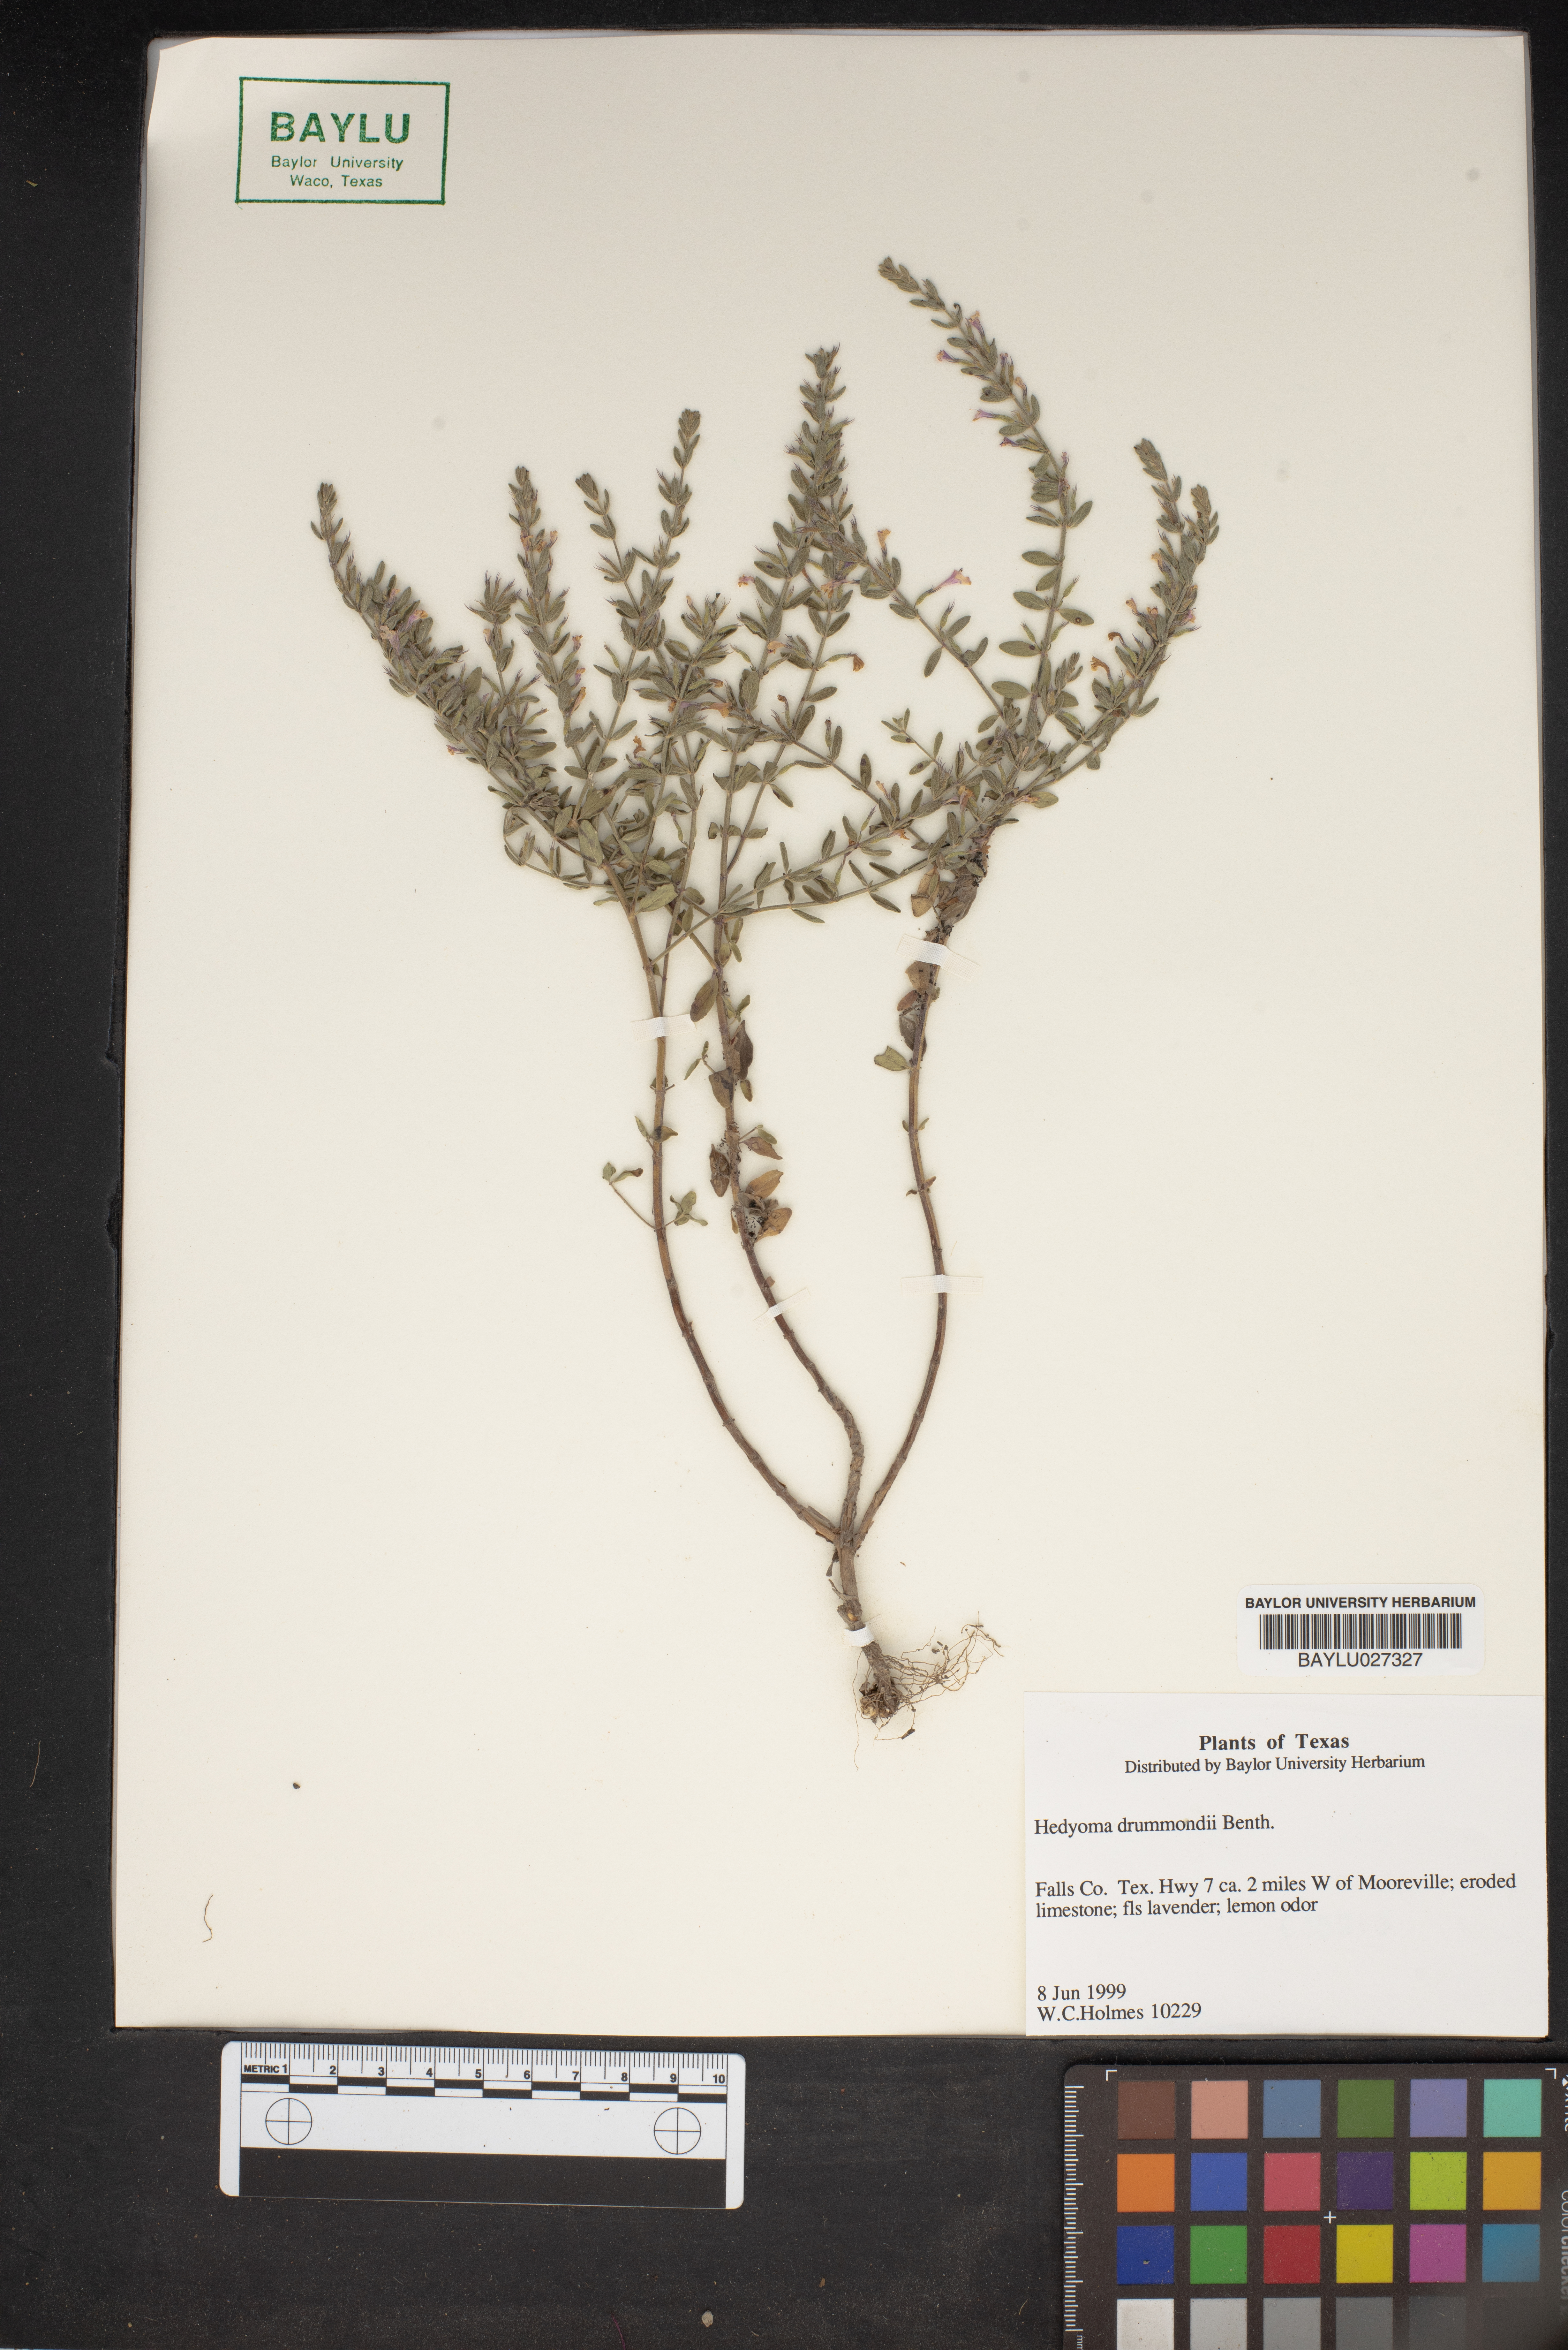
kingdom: Plantae
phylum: Tracheophyta
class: Magnoliopsida
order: Lamiales
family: Lamiaceae
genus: Hedeoma
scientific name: Hedeoma drummondii
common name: New mexico pennyroyal
